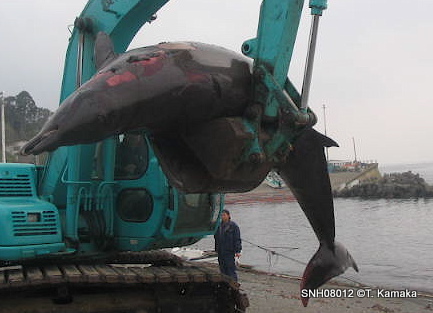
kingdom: Animalia
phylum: Chordata
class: Mammalia
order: Cetacea
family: Hyperoodontidae
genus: Mesoplodon
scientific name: Mesoplodon
